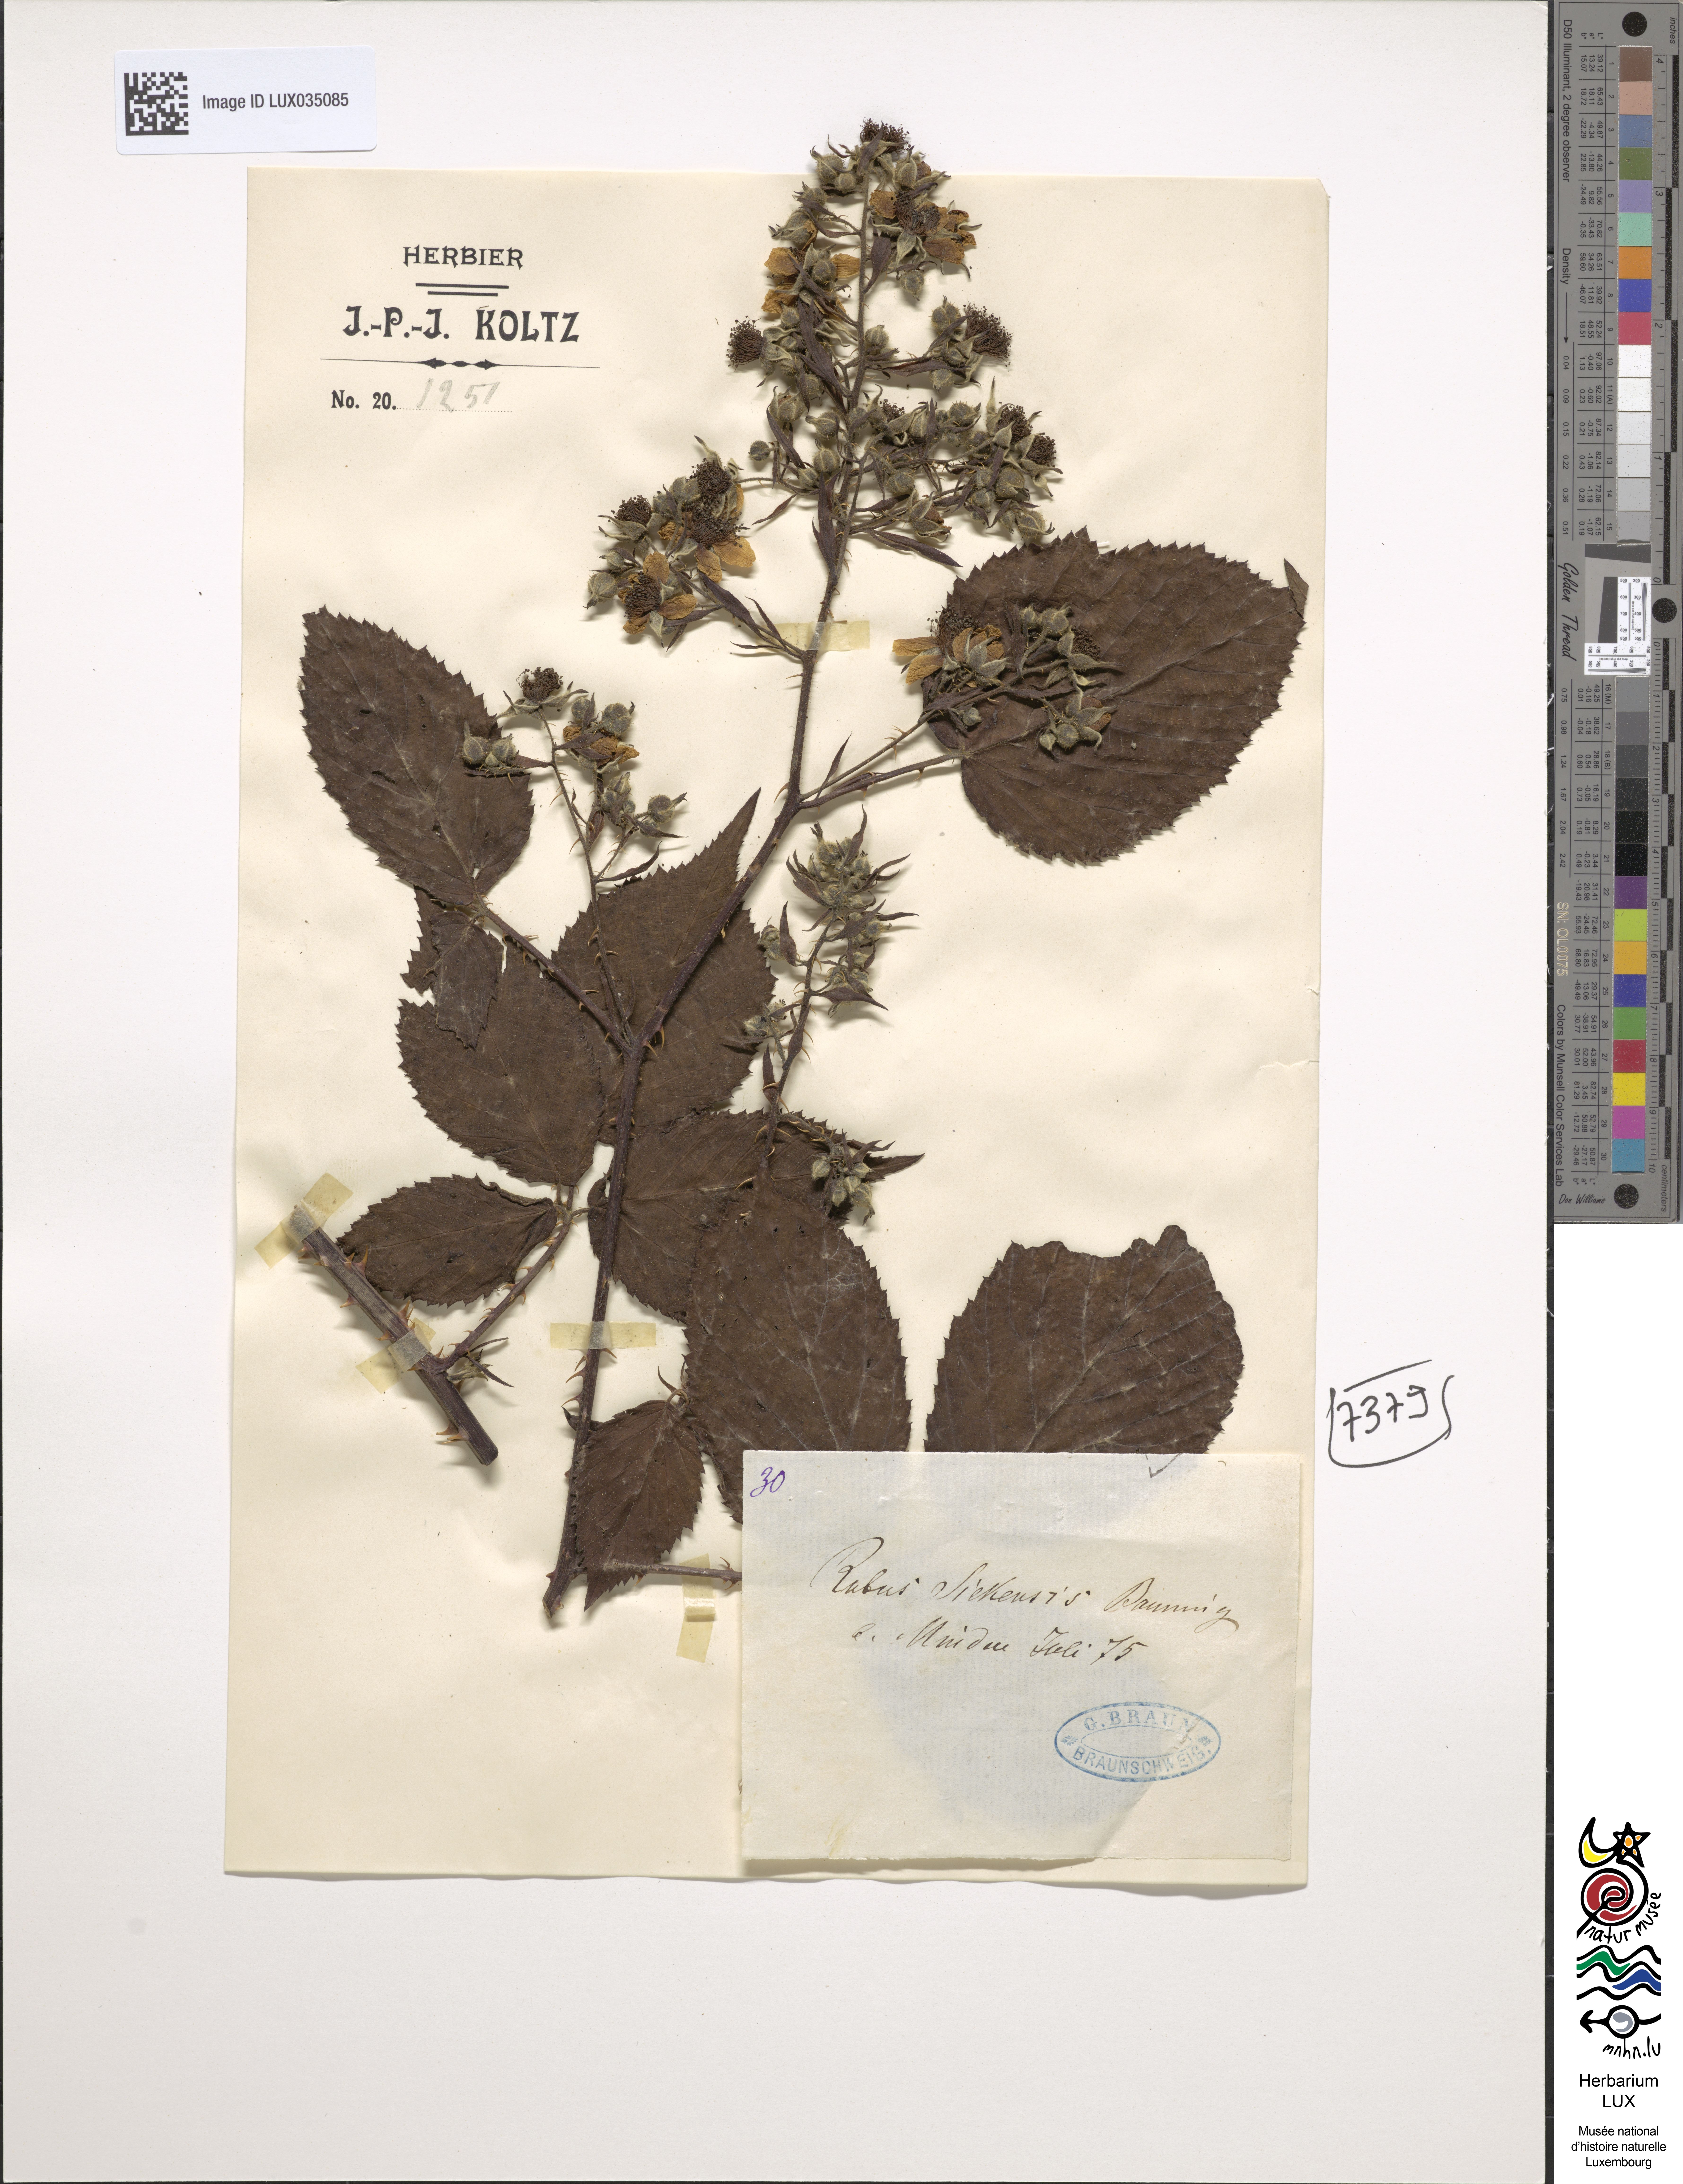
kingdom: Plantae
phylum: Tracheophyta
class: Magnoliopsida
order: Rosales
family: Rosaceae
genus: Rubus
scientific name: Rubus siekensis
